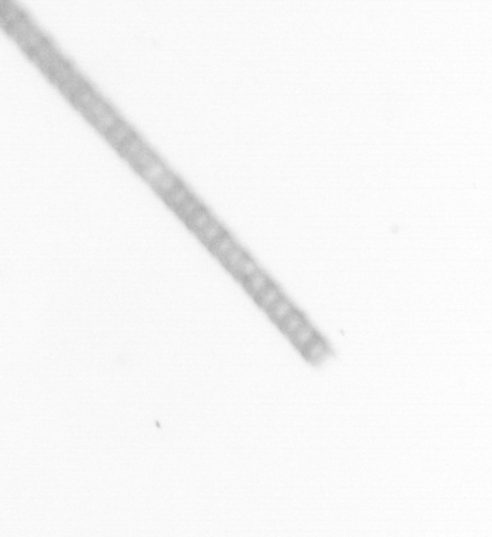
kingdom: Chromista
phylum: Ochrophyta
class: Bacillariophyceae
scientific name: Bacillariophyceae
